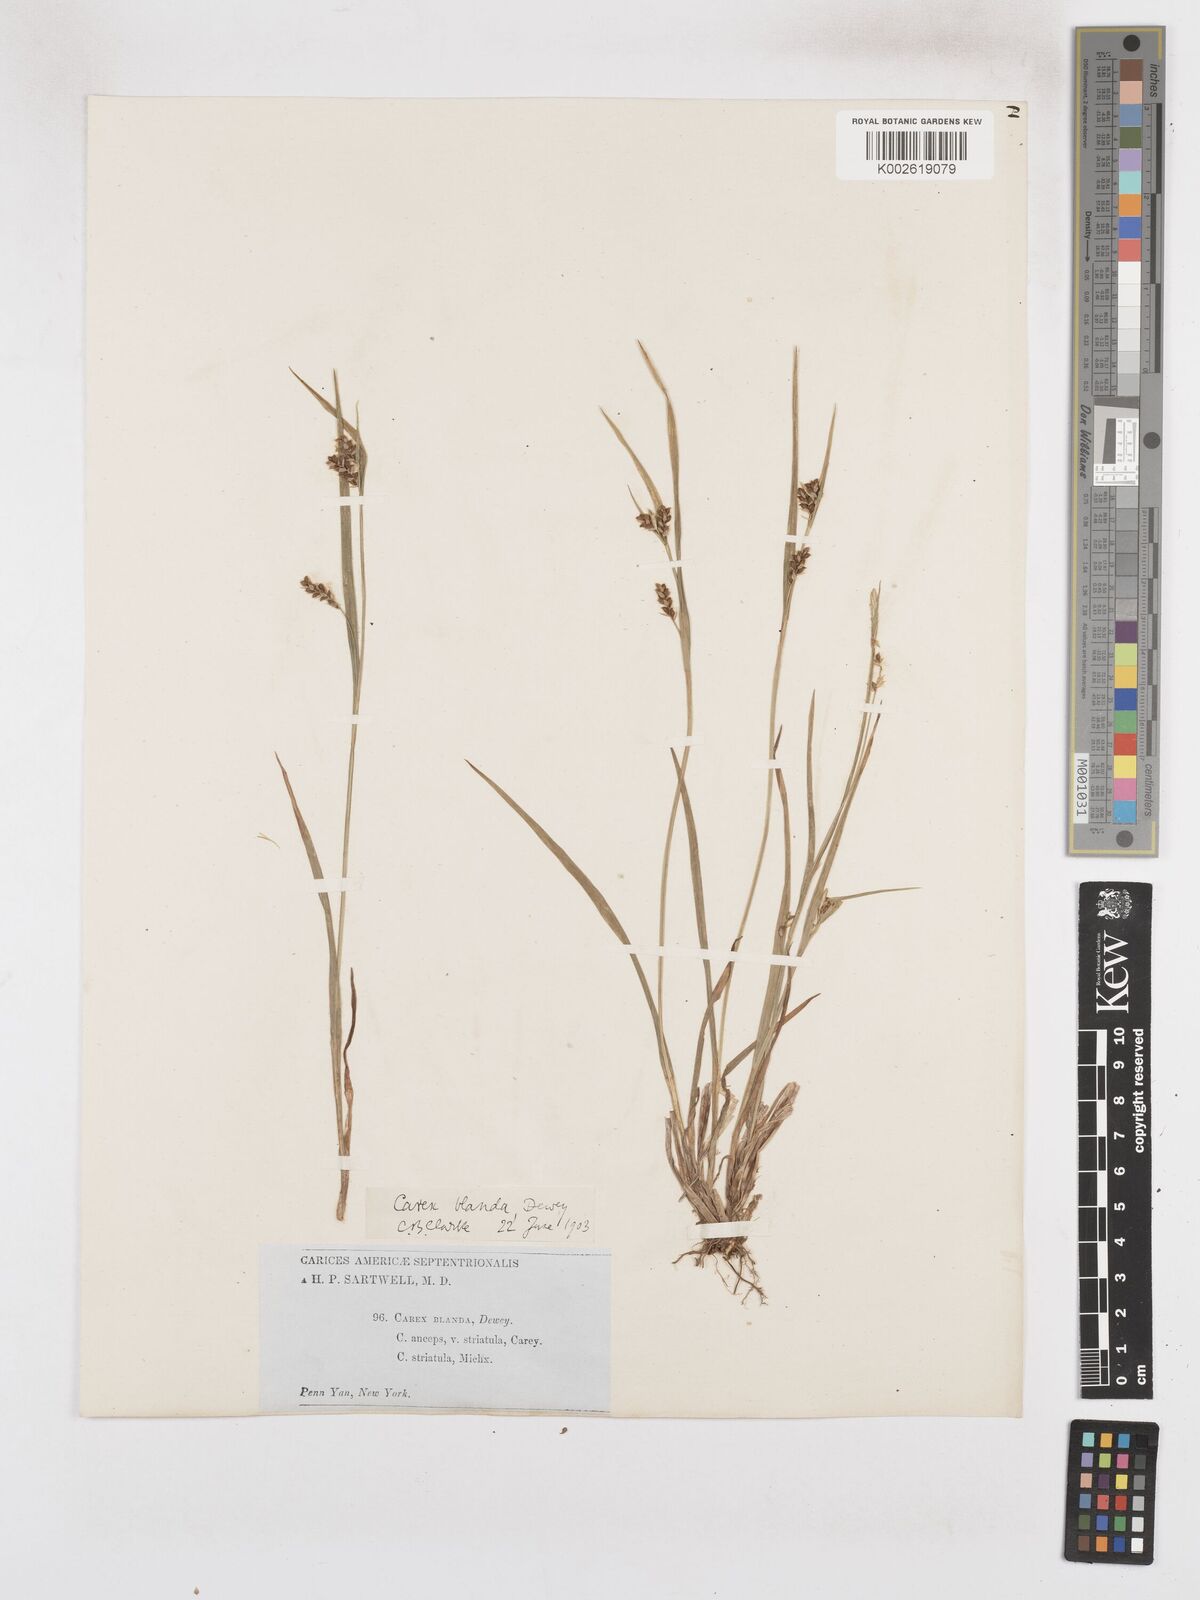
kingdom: Plantae
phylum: Tracheophyta
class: Liliopsida
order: Poales
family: Cyperaceae
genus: Carex
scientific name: Carex blanda
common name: Bland sedge
